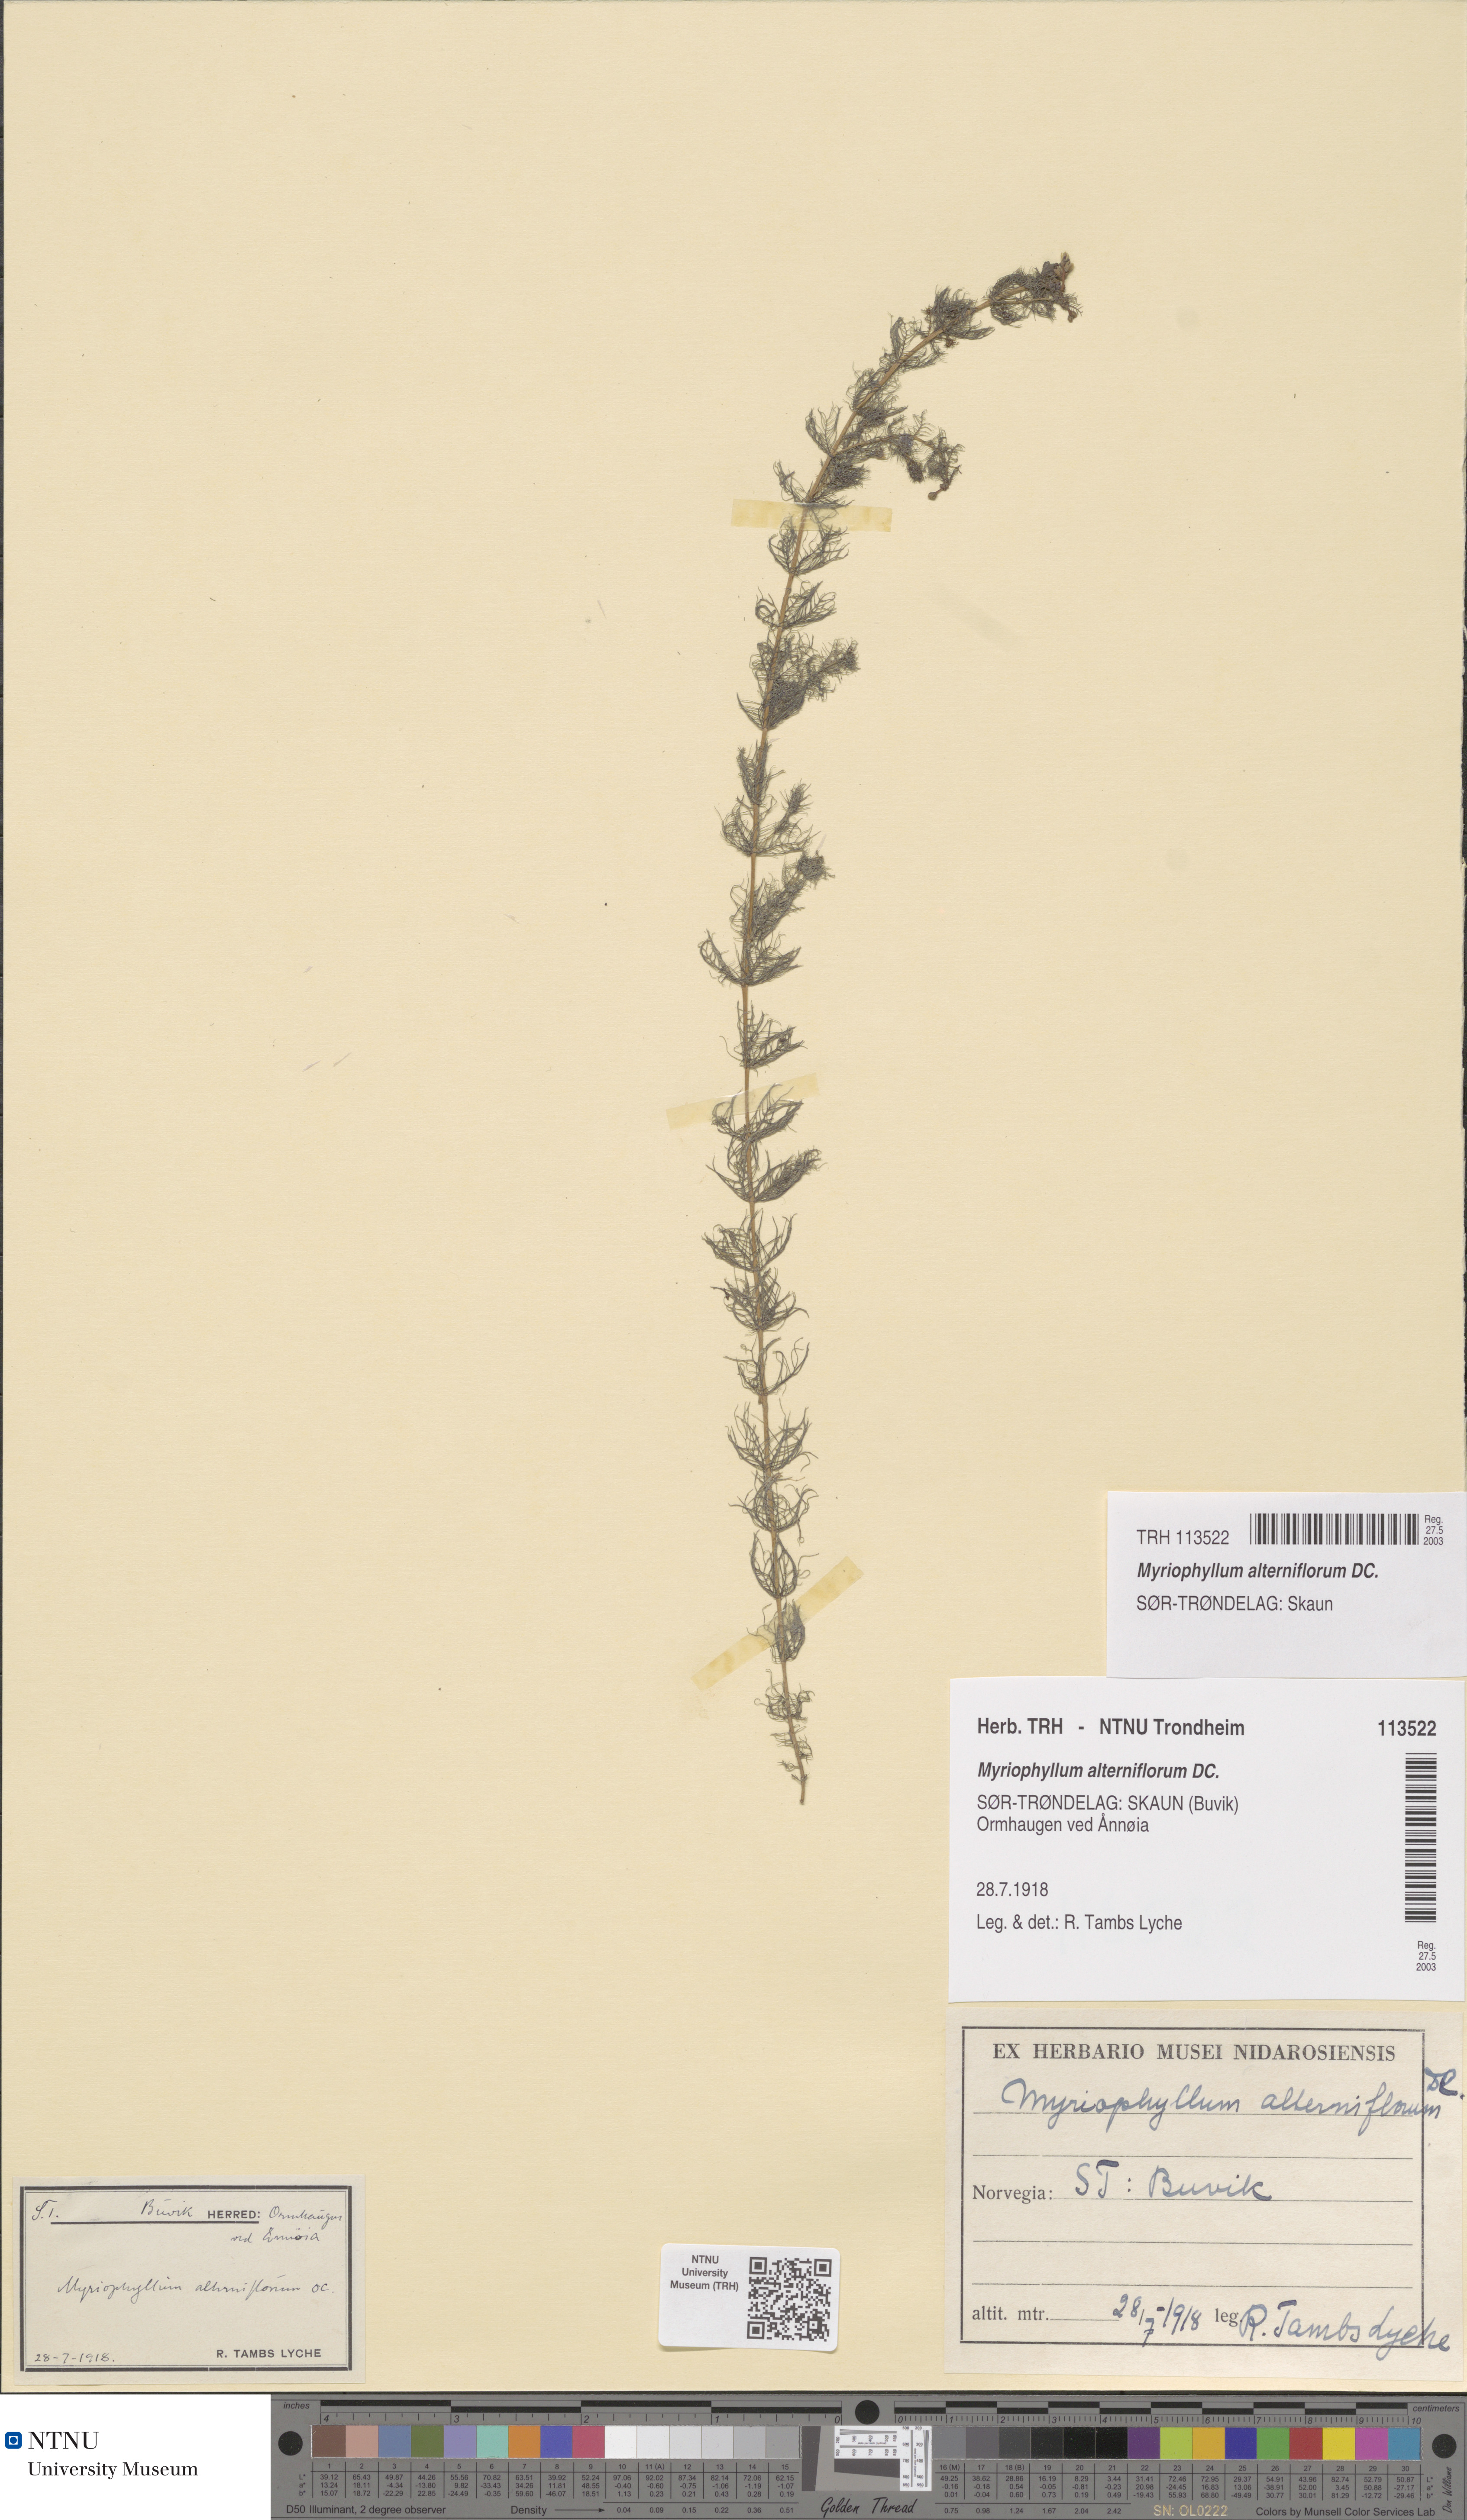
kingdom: Plantae
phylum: Tracheophyta
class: Magnoliopsida
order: Saxifragales
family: Haloragaceae
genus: Myriophyllum
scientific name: Myriophyllum alterniflorum
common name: Alternate water-milfoil
